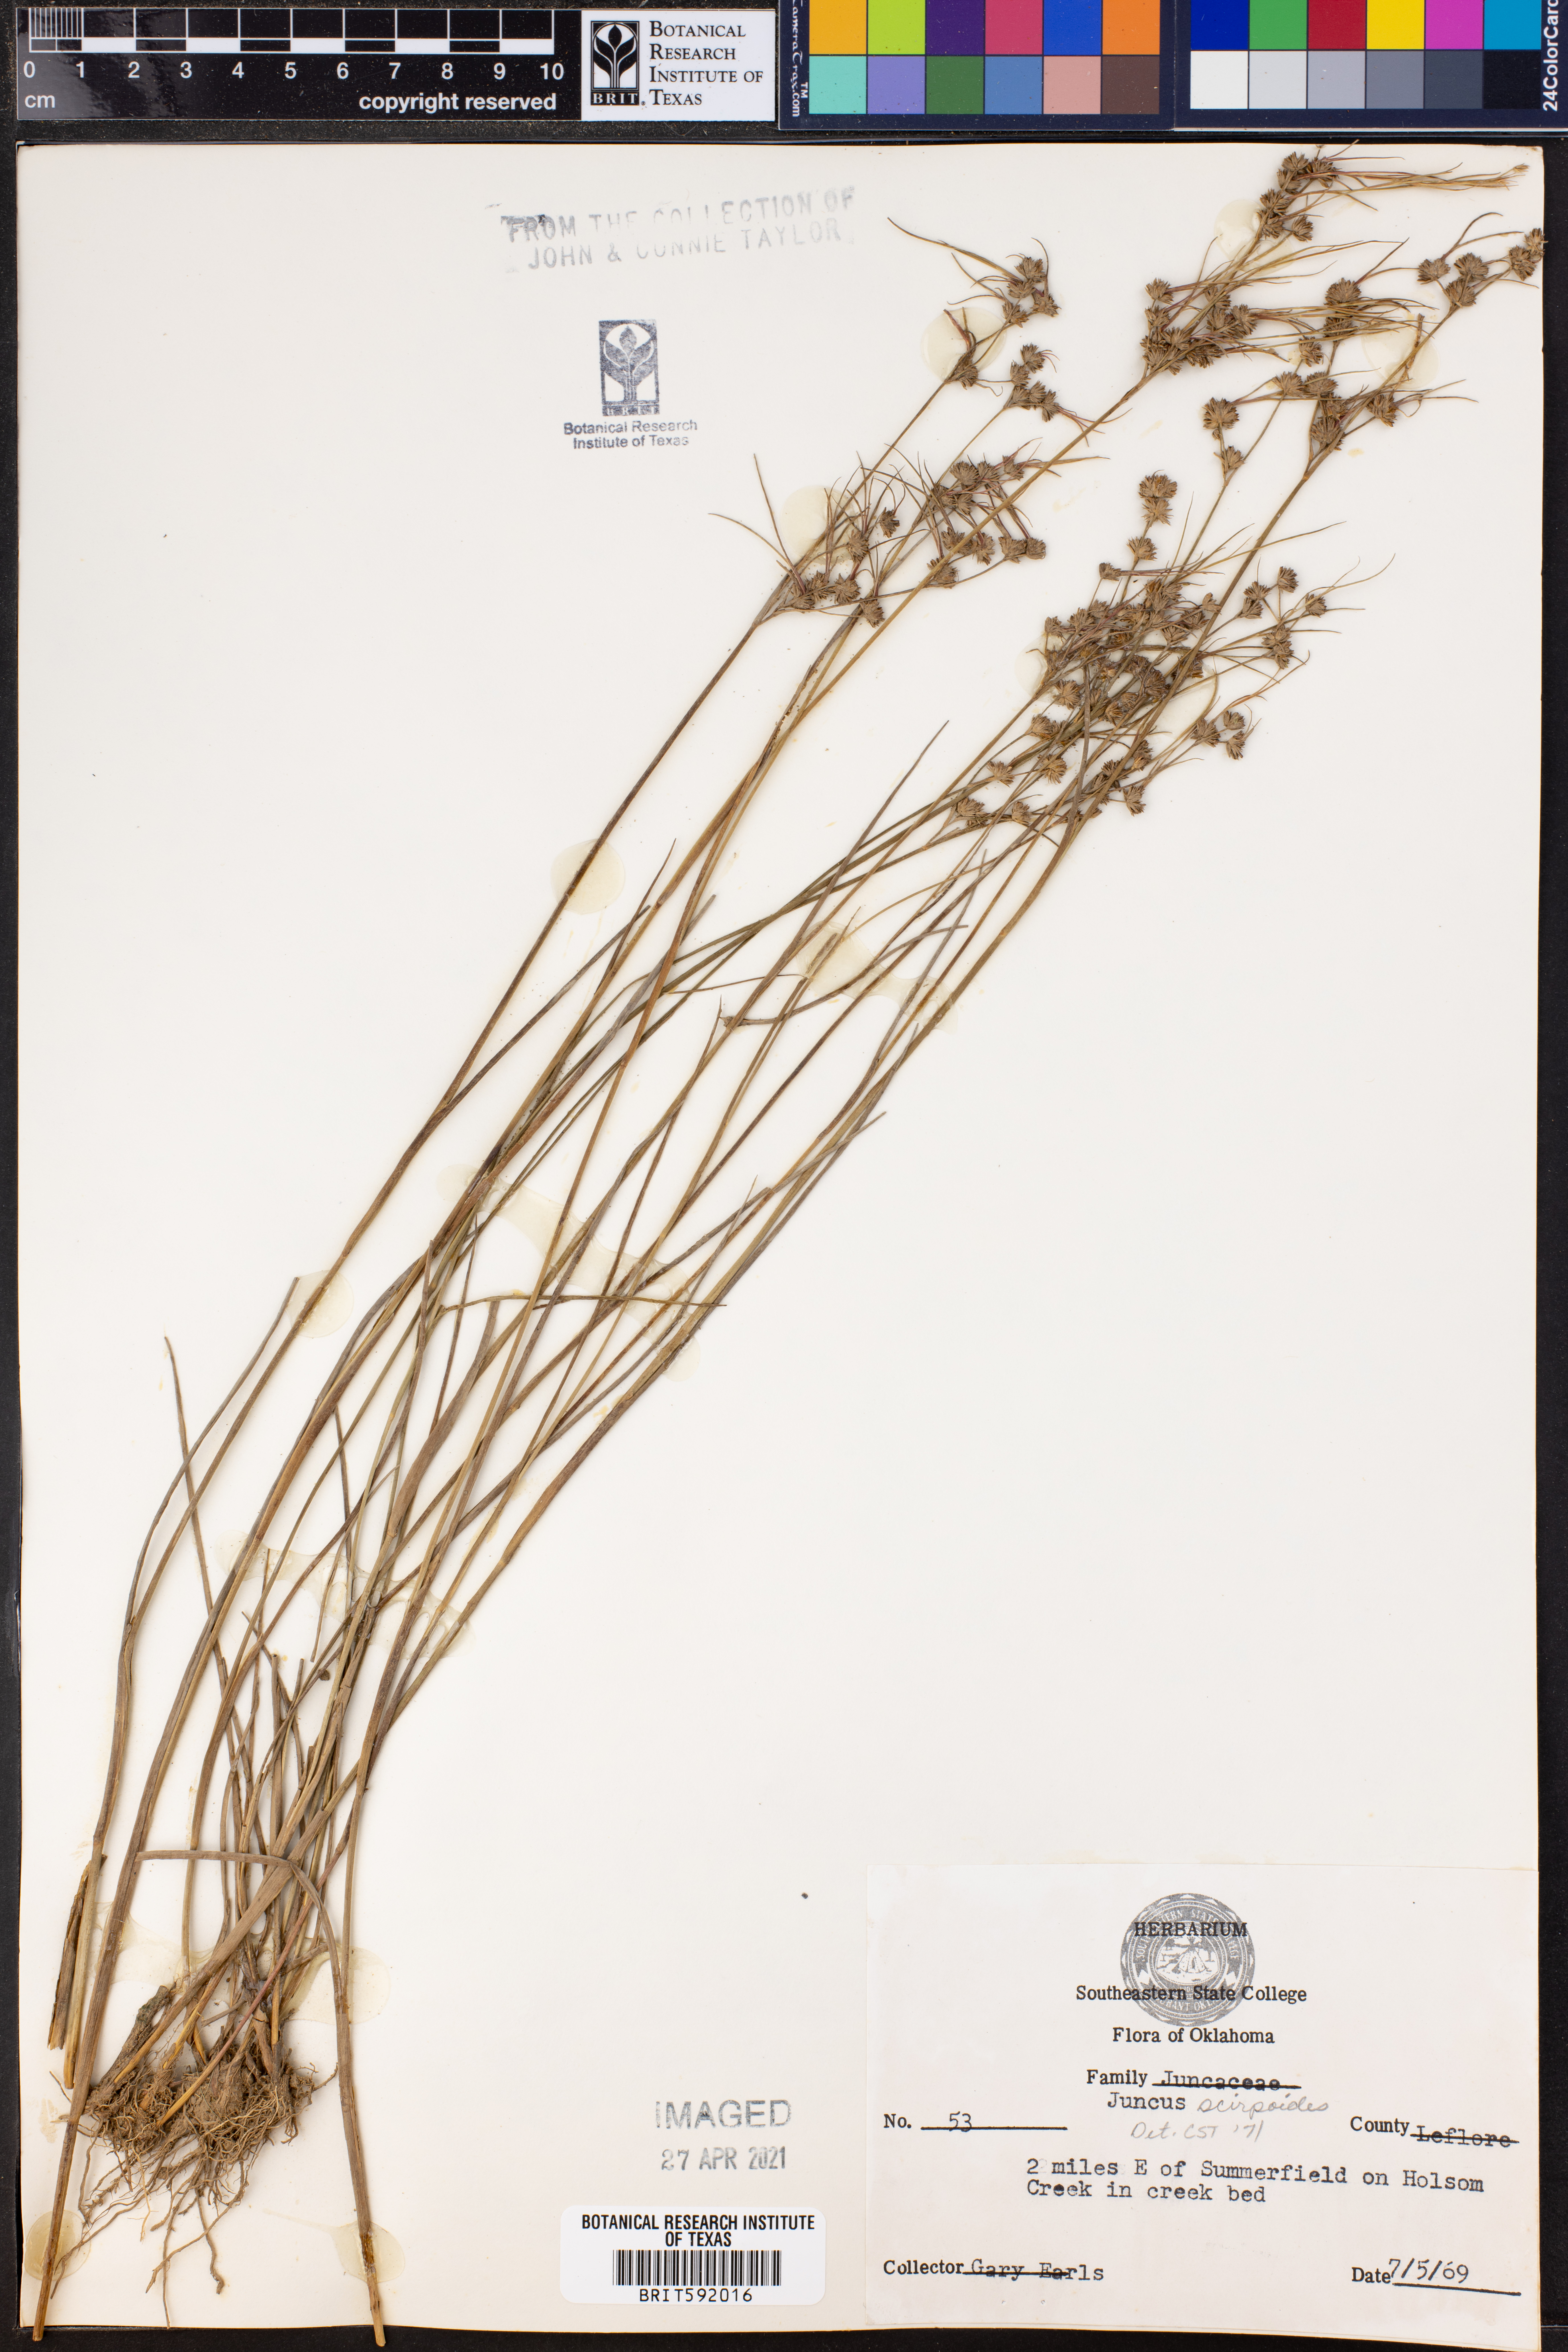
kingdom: Plantae
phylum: Tracheophyta
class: Liliopsida
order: Poales
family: Juncaceae
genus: Juncus
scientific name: Juncus scirpoides
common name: Needlepod rush
